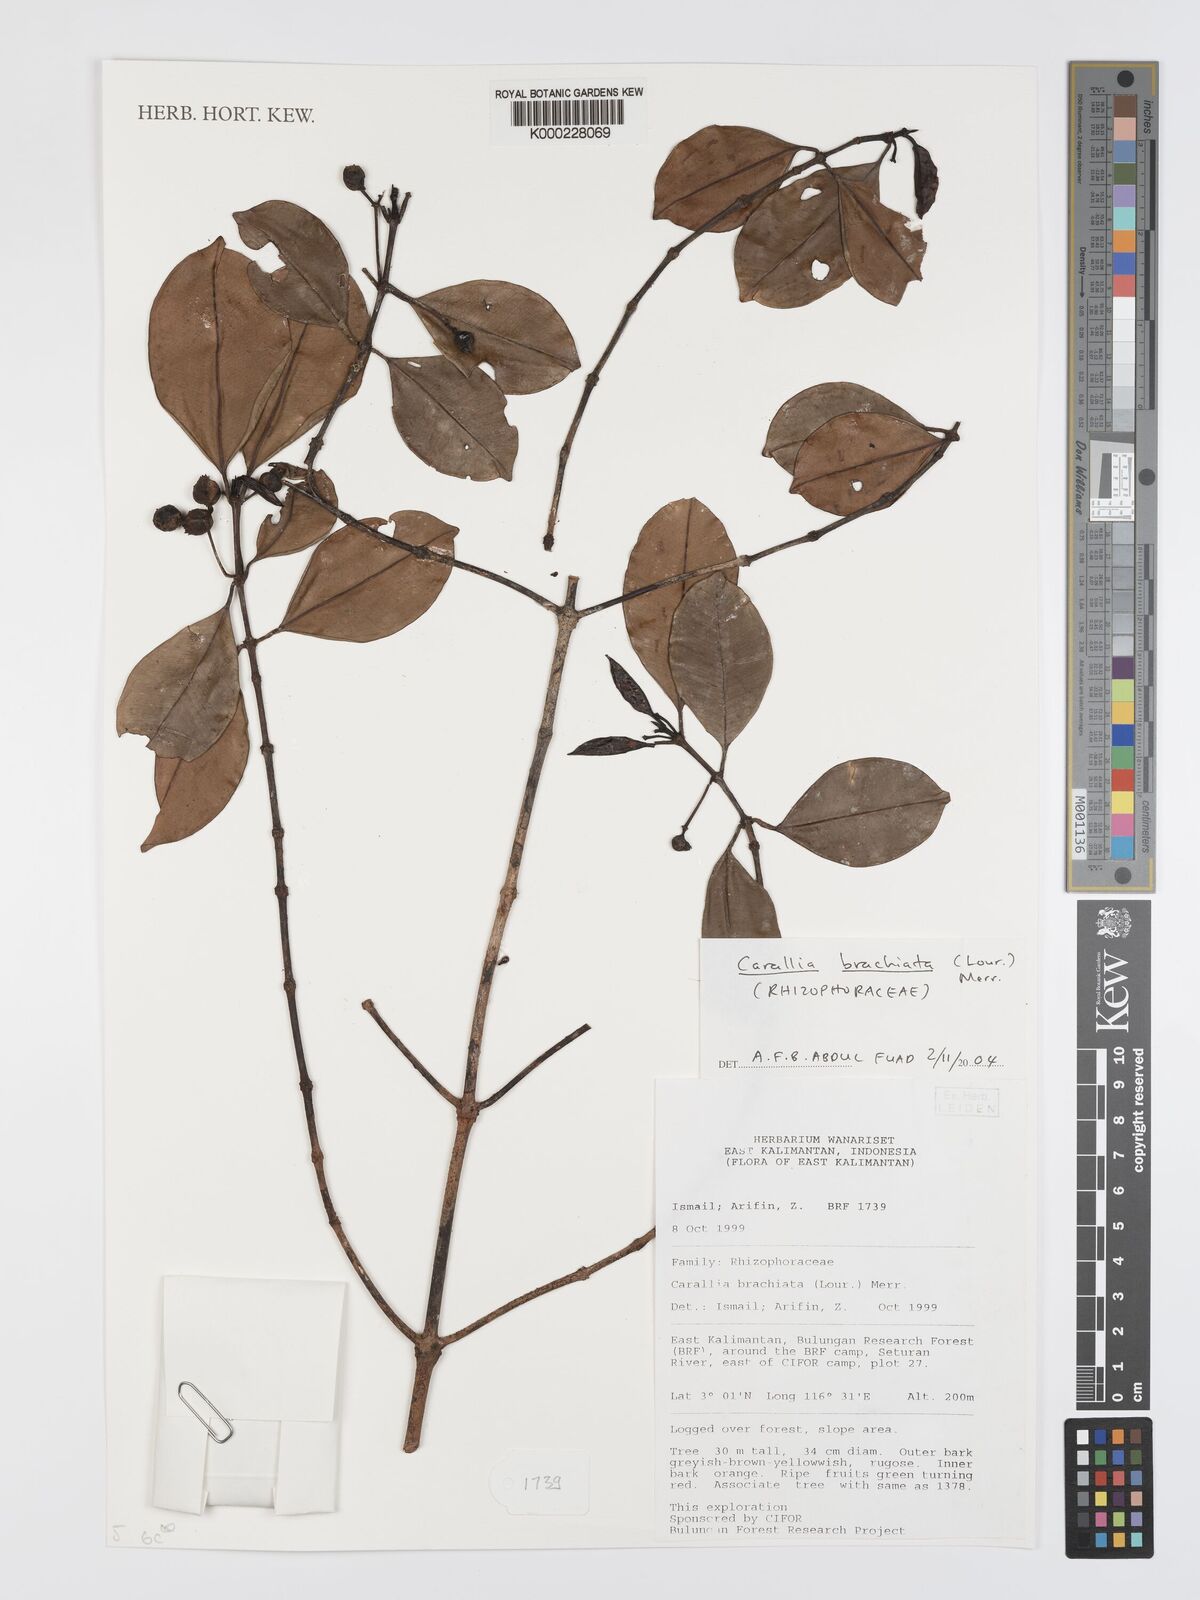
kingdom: Plantae
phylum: Tracheophyta
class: Magnoliopsida
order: Malpighiales
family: Rhizophoraceae
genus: Carallia
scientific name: Carallia brachiata
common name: Carallawood
